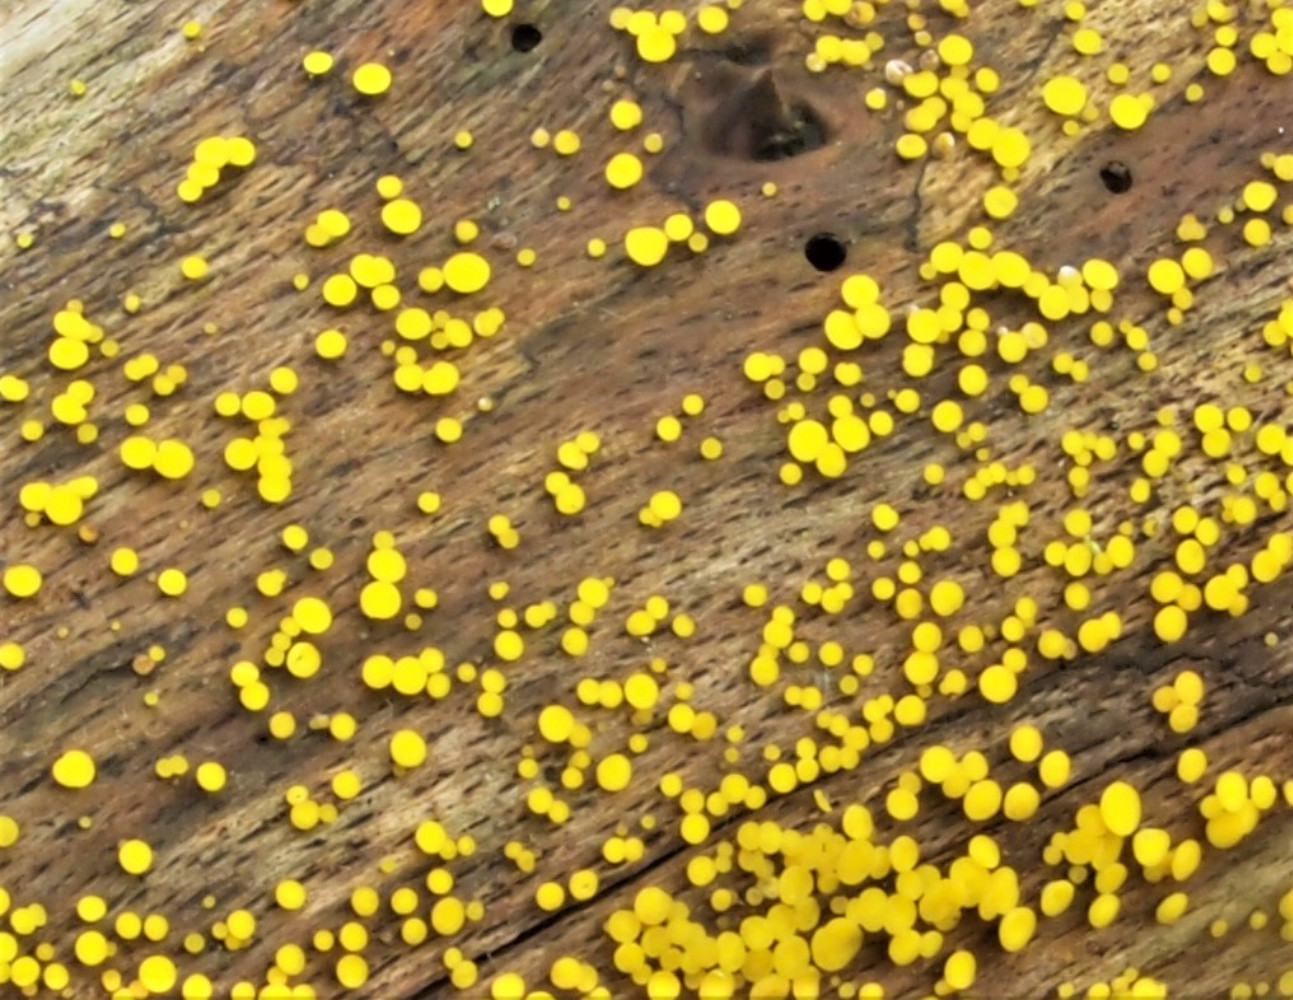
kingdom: Fungi
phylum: Ascomycota
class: Leotiomycetes
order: Helotiales
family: Pezizellaceae
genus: Calycina
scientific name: Calycina citrina
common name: almindelig gulskive
